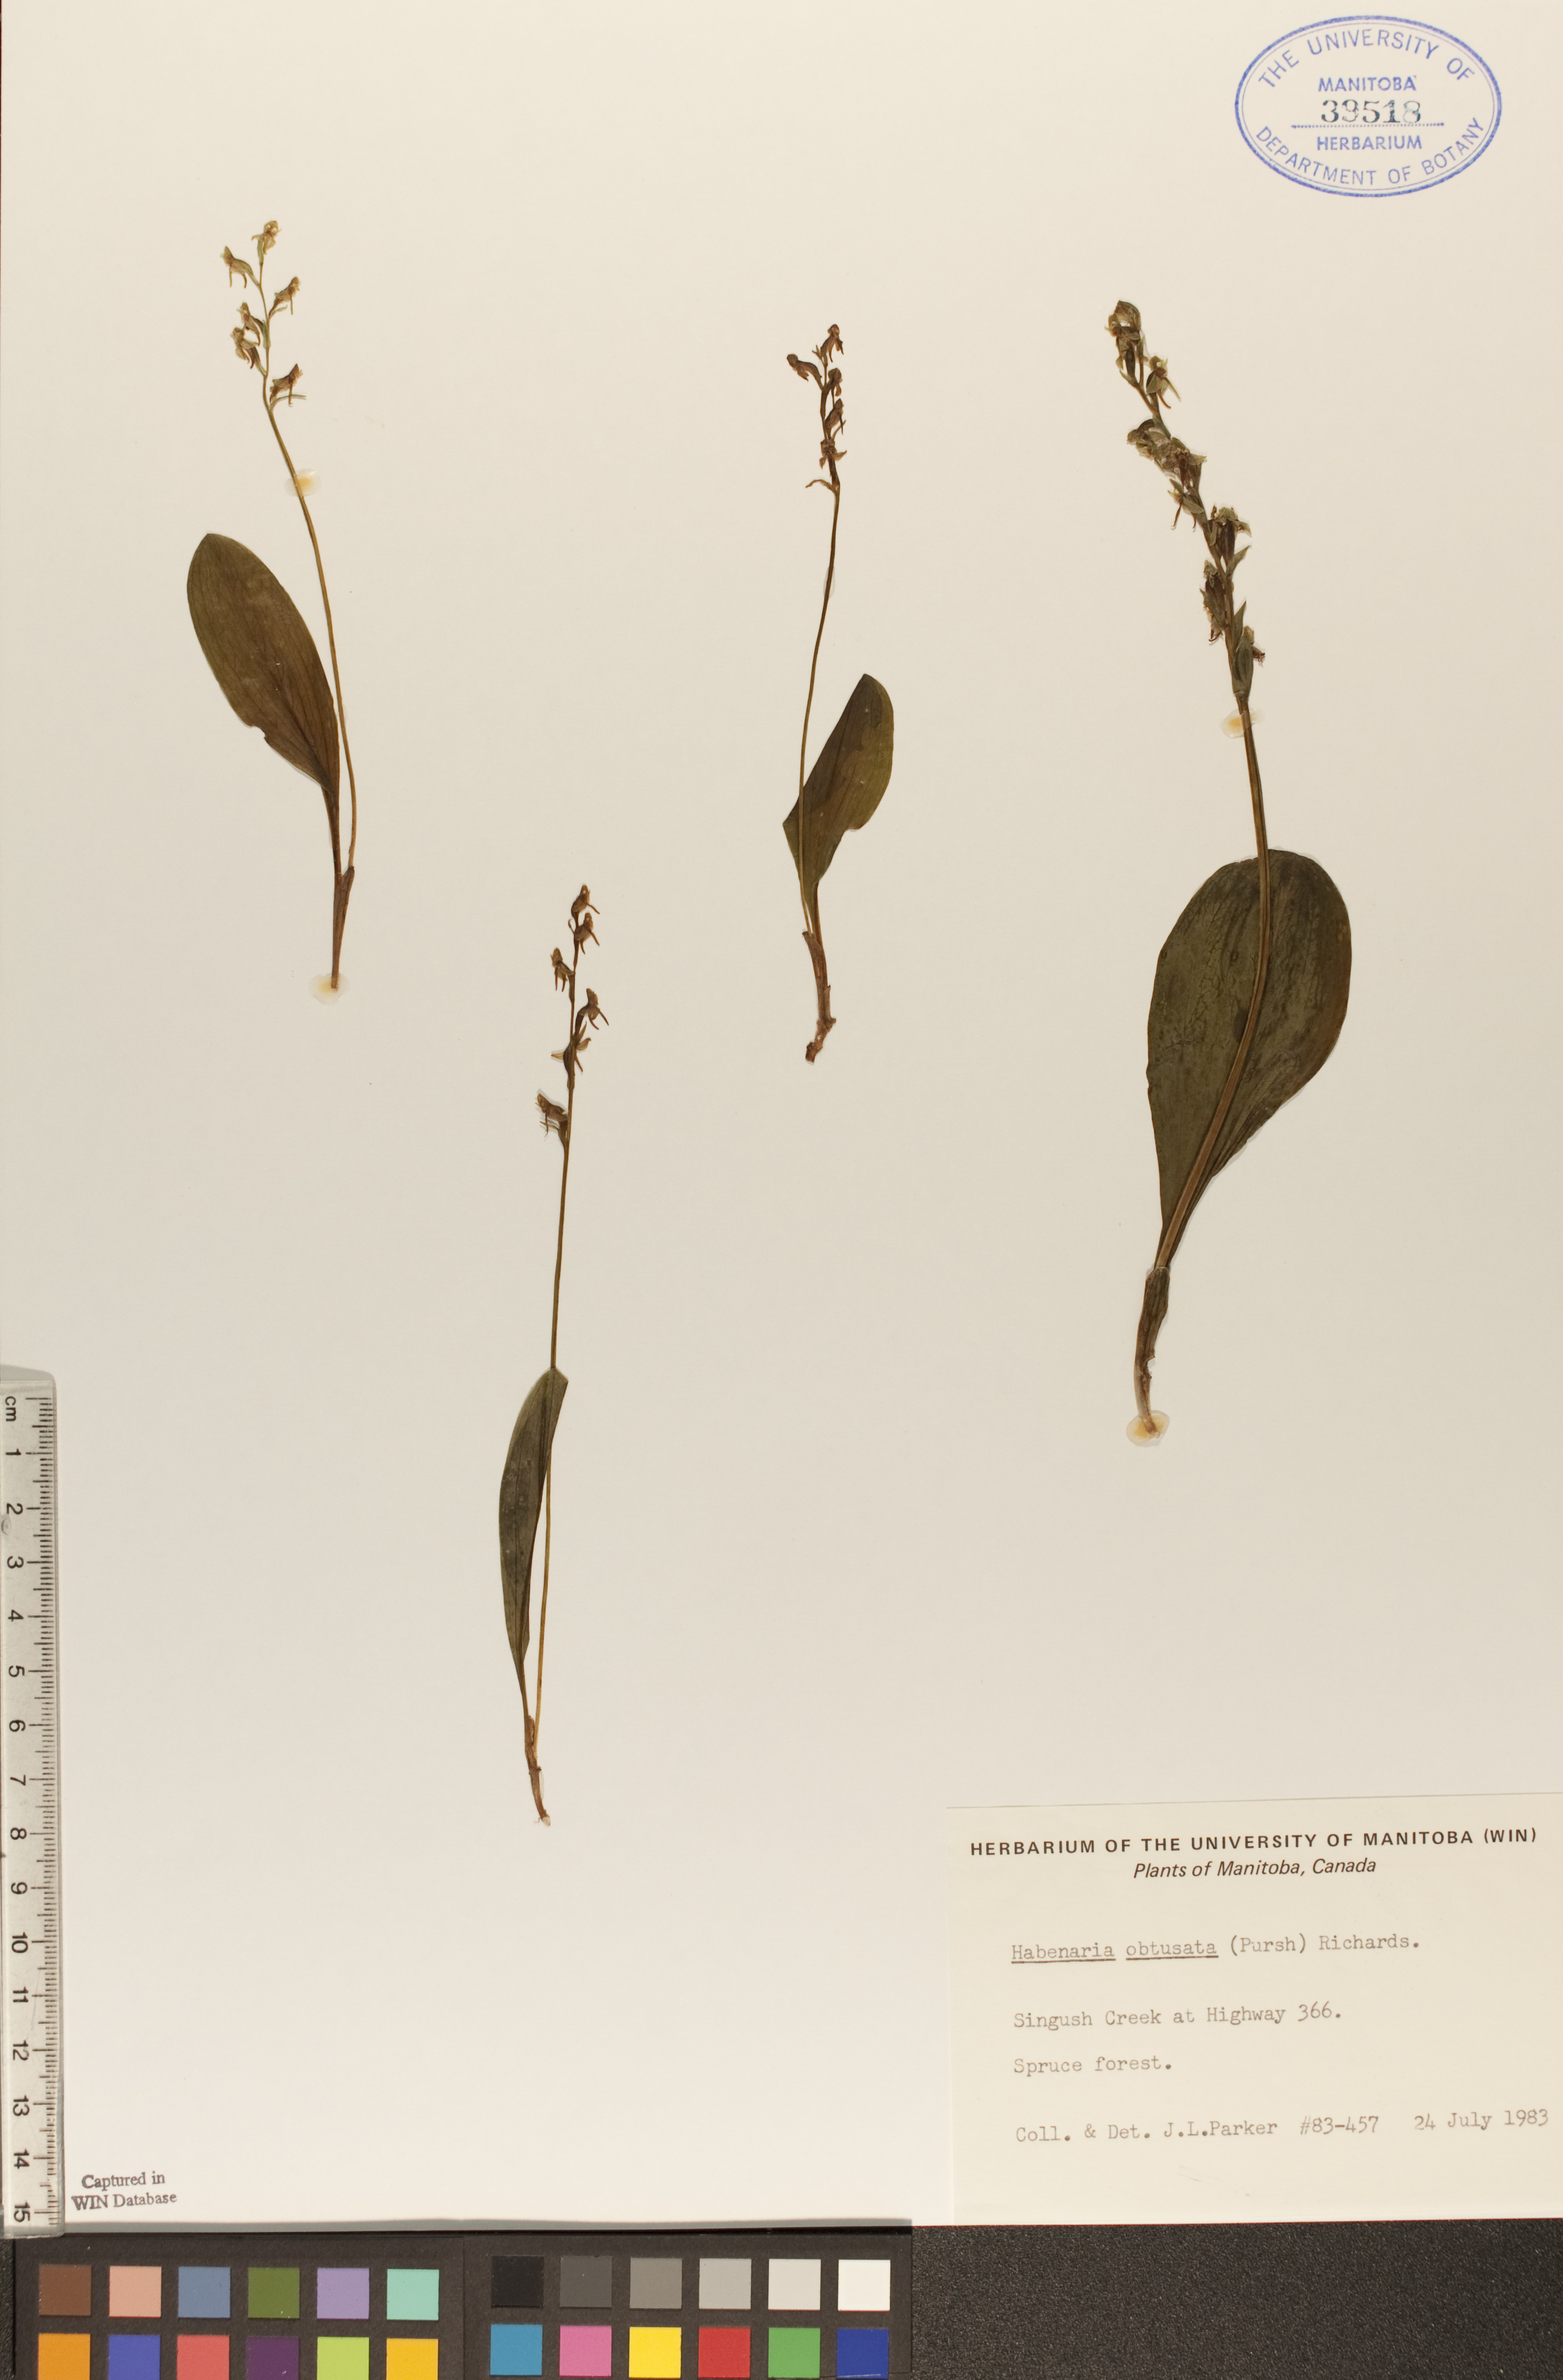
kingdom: Plantae
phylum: Tracheophyta
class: Liliopsida
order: Asparagales
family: Orchidaceae
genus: Platanthera
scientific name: Platanthera obtusata
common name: Blunt bog orchid
